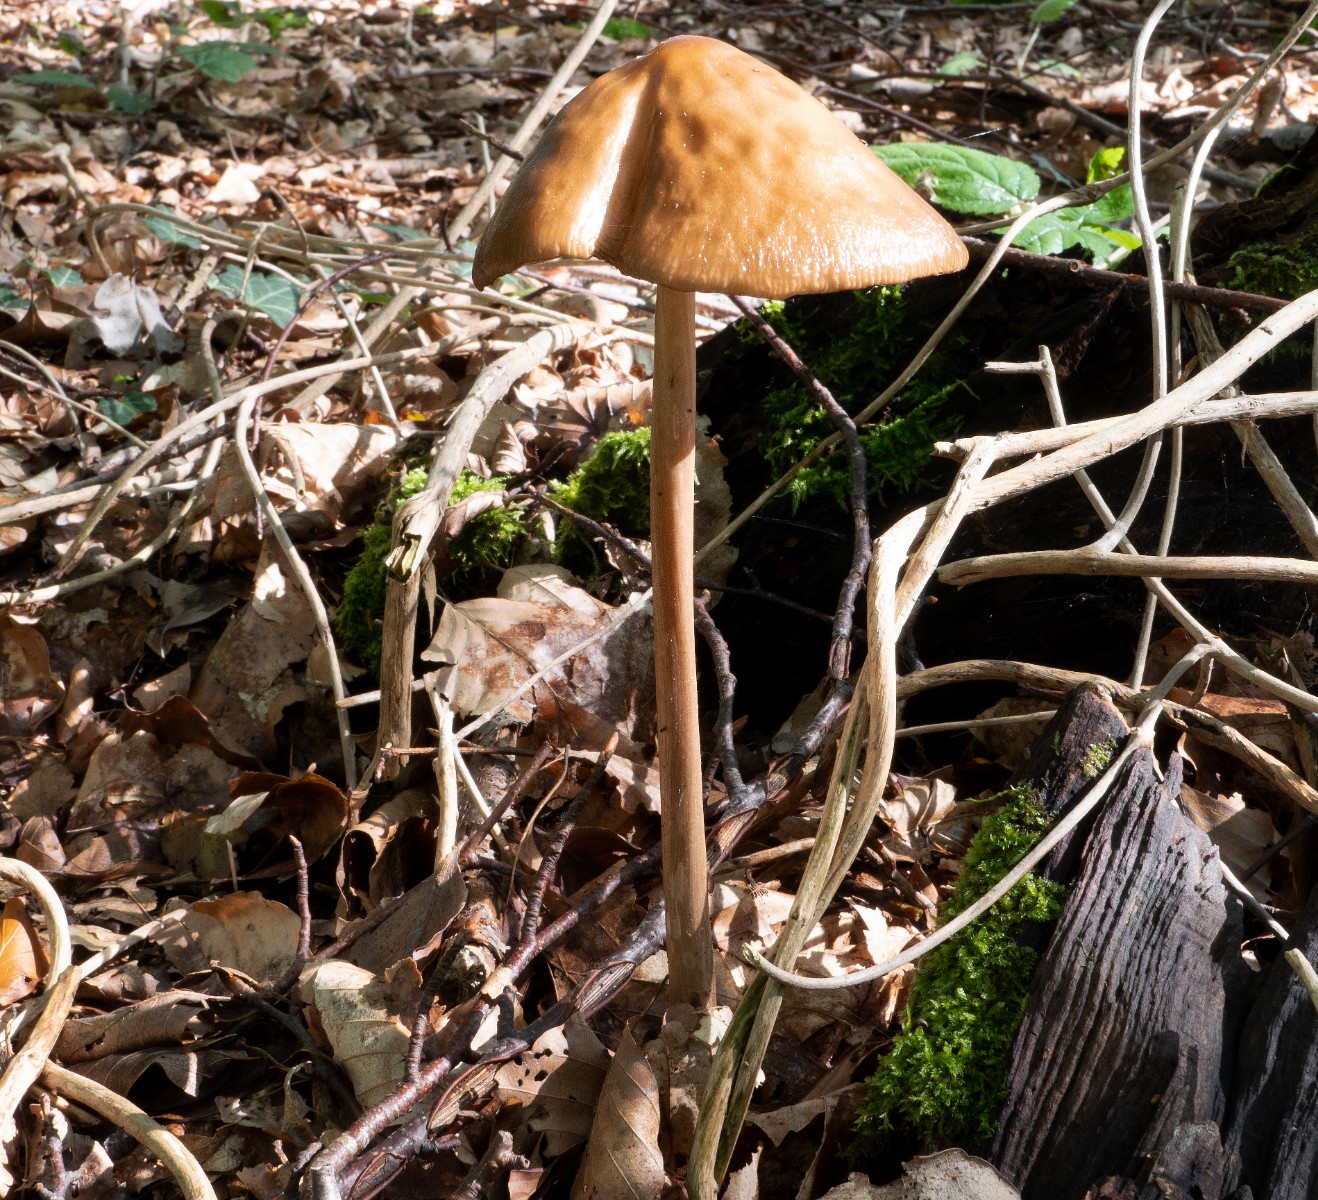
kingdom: Fungi
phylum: Basidiomycota
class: Agaricomycetes
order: Agaricales
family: Physalacriaceae
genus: Hymenopellis
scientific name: Hymenopellis radicata
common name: almindelig pælerodshat
